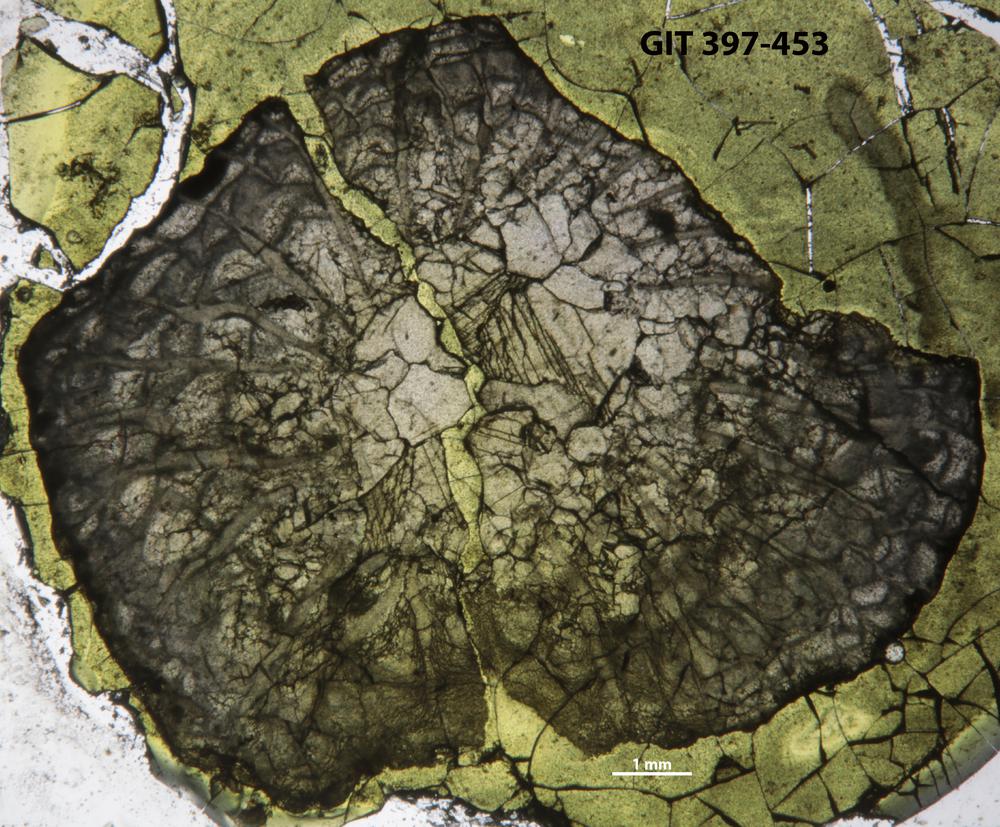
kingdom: Animalia
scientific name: Animalia
